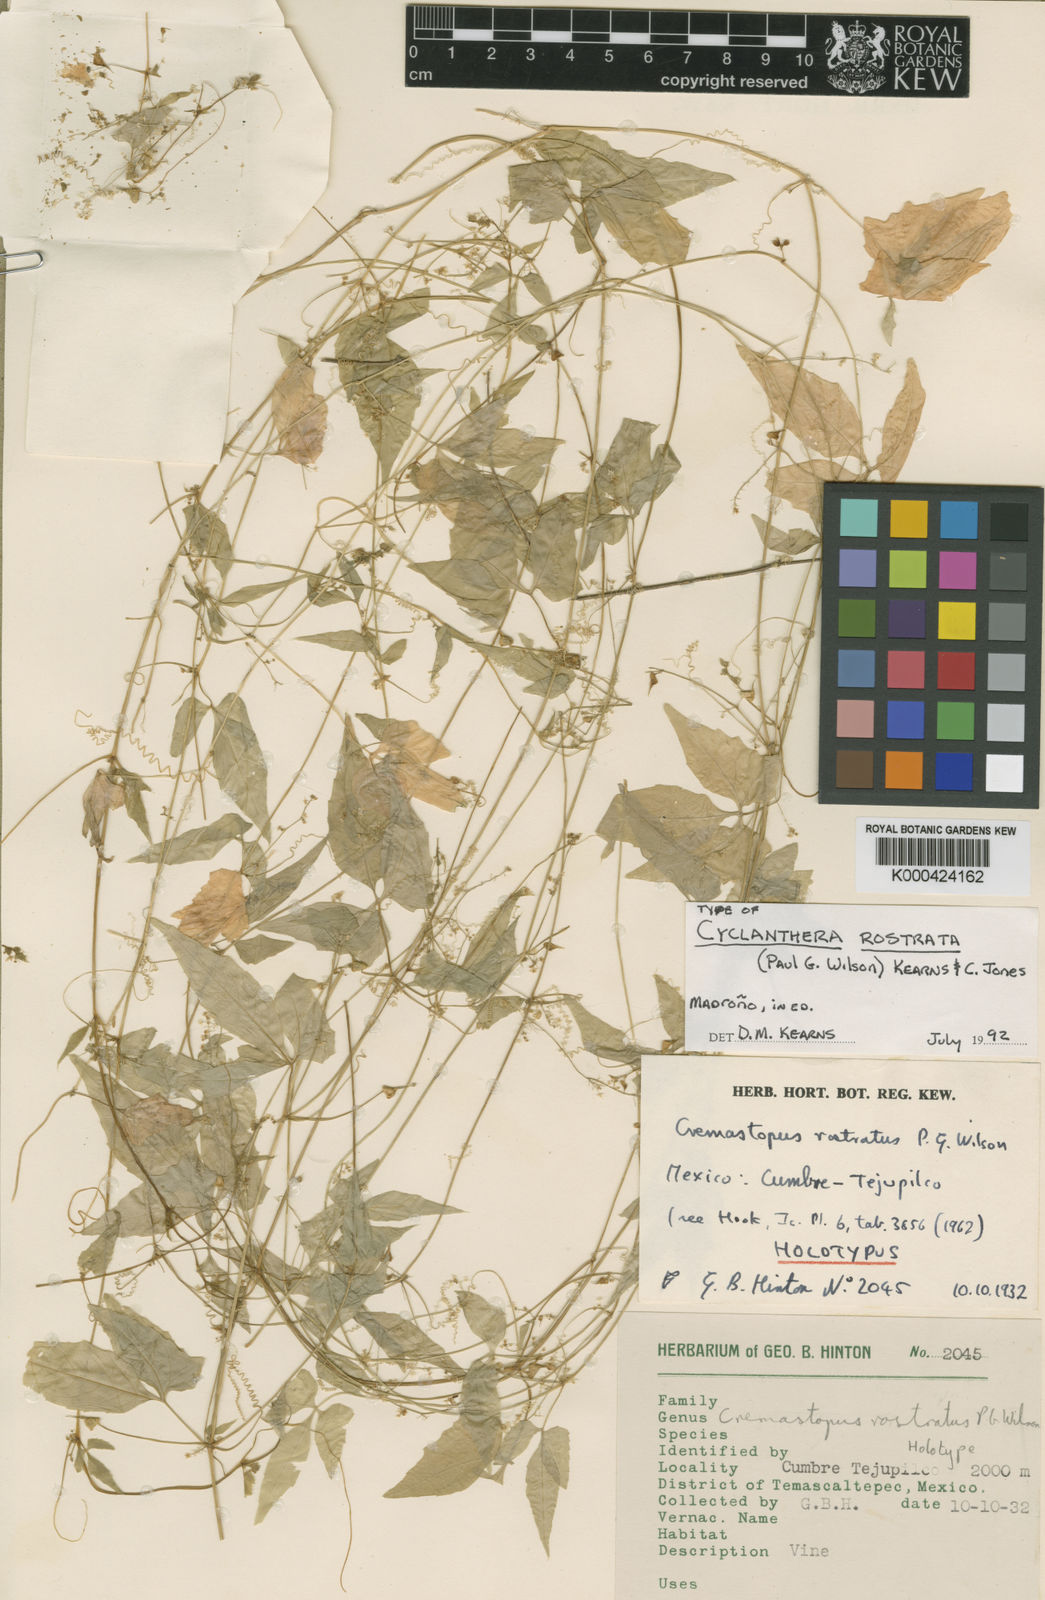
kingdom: Plantae
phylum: Tracheophyta
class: Magnoliopsida
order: Cucurbitales
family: Cucurbitaceae
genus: Cyclanthera
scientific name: Cyclanthera rostrata
